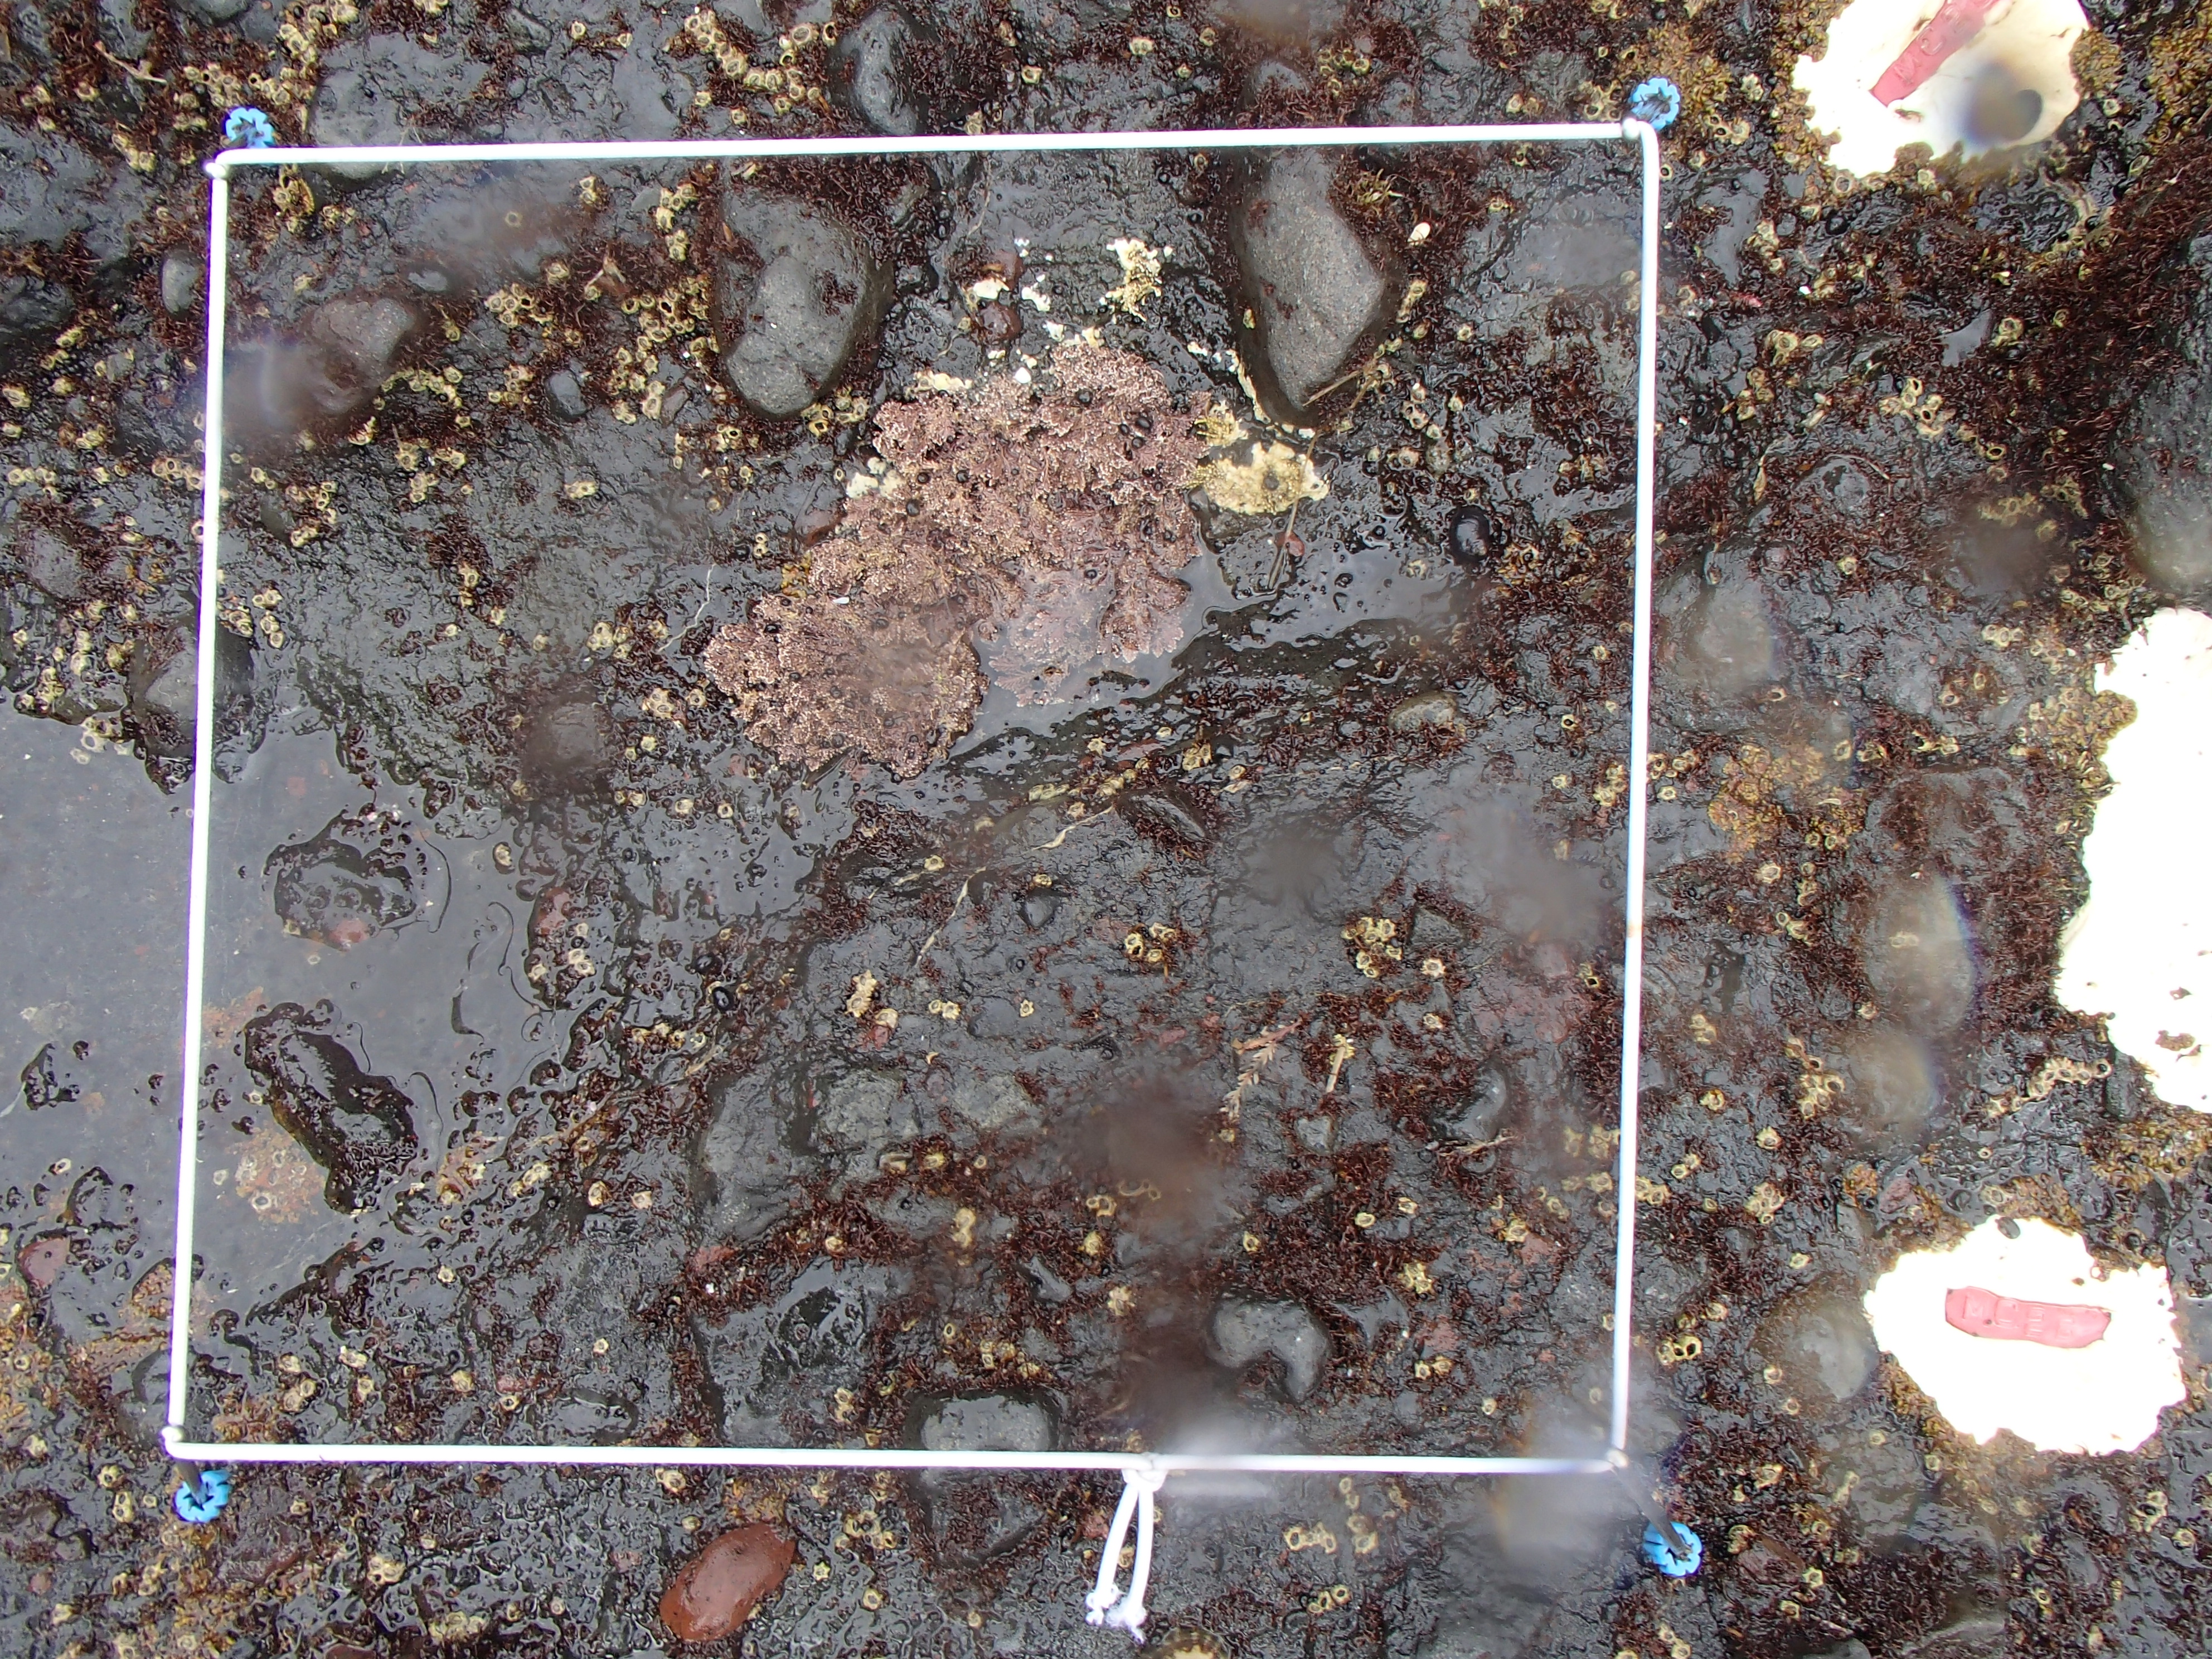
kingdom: Plantae
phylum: Rhodophyta
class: Florideophyceae
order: Gigartinales
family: Endocladiaceae
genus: Gloiopeltis
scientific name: Gloiopeltis furcata
